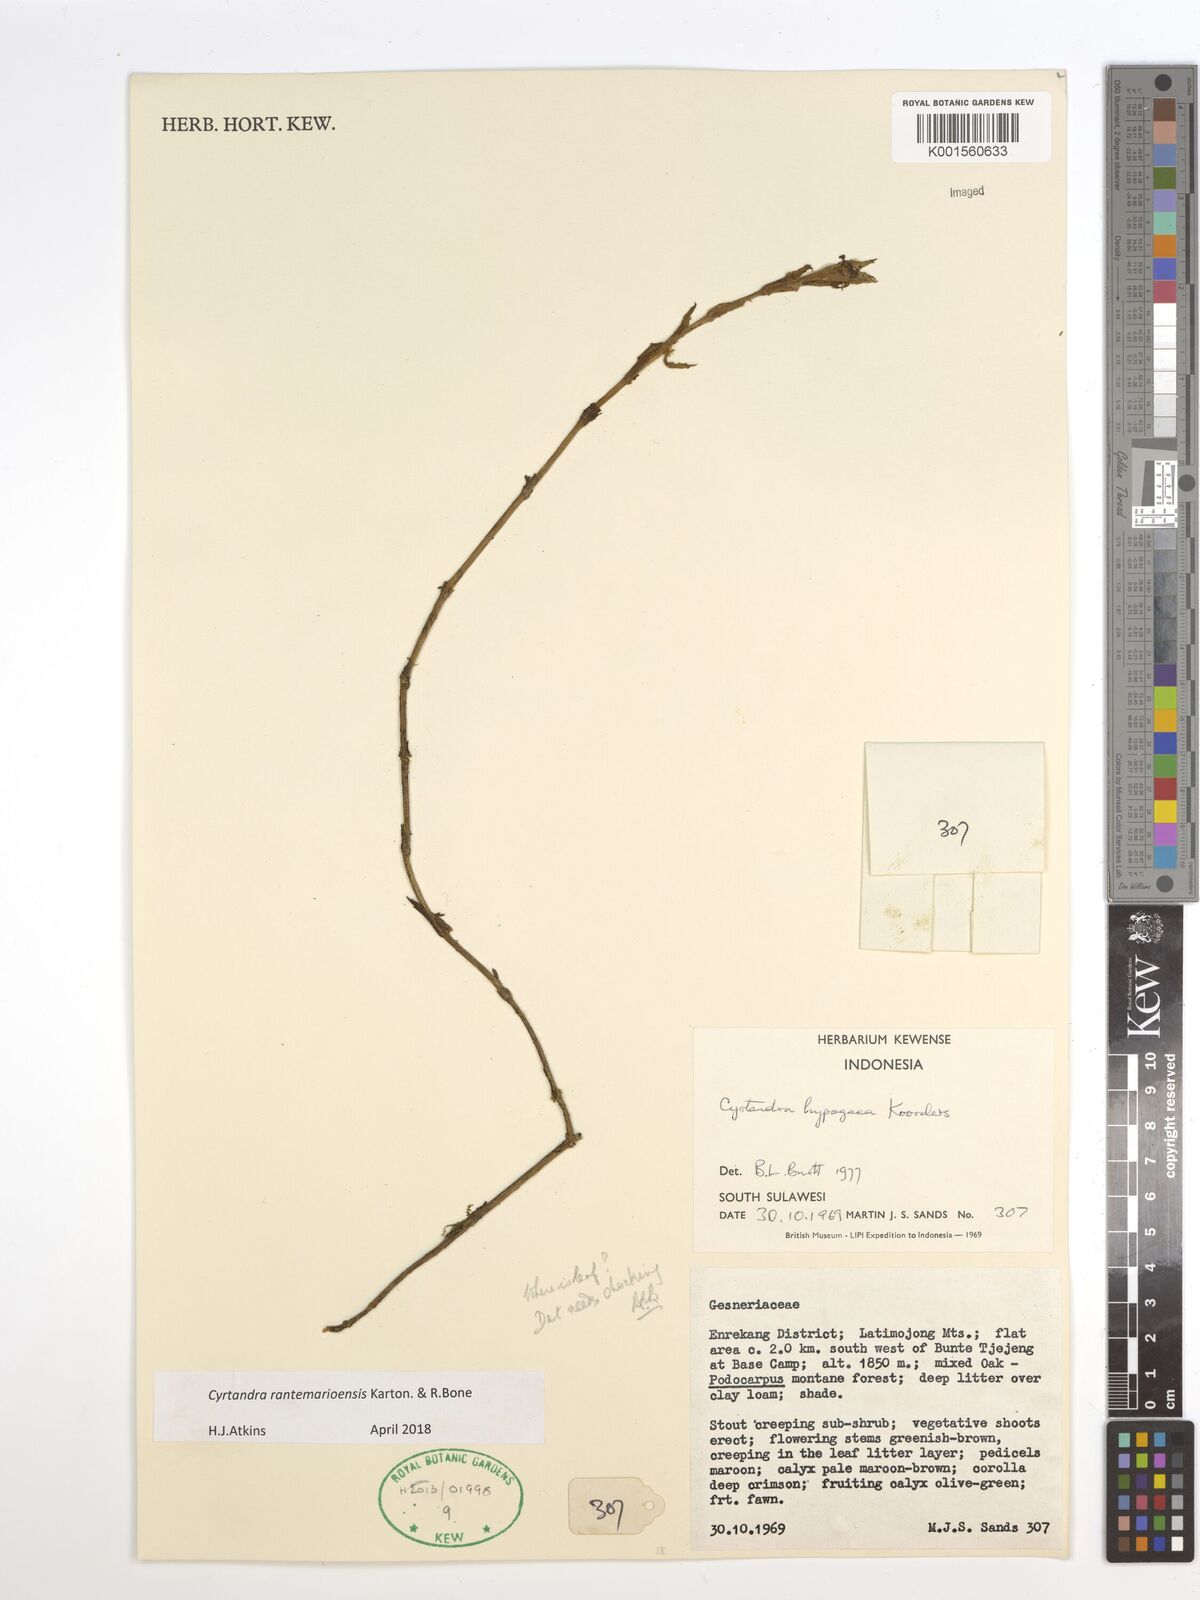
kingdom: Plantae
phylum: Tracheophyta
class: Magnoliopsida
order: Lamiales
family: Gesneriaceae
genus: Cyrtandra
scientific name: Cyrtandra rantemarioensis
